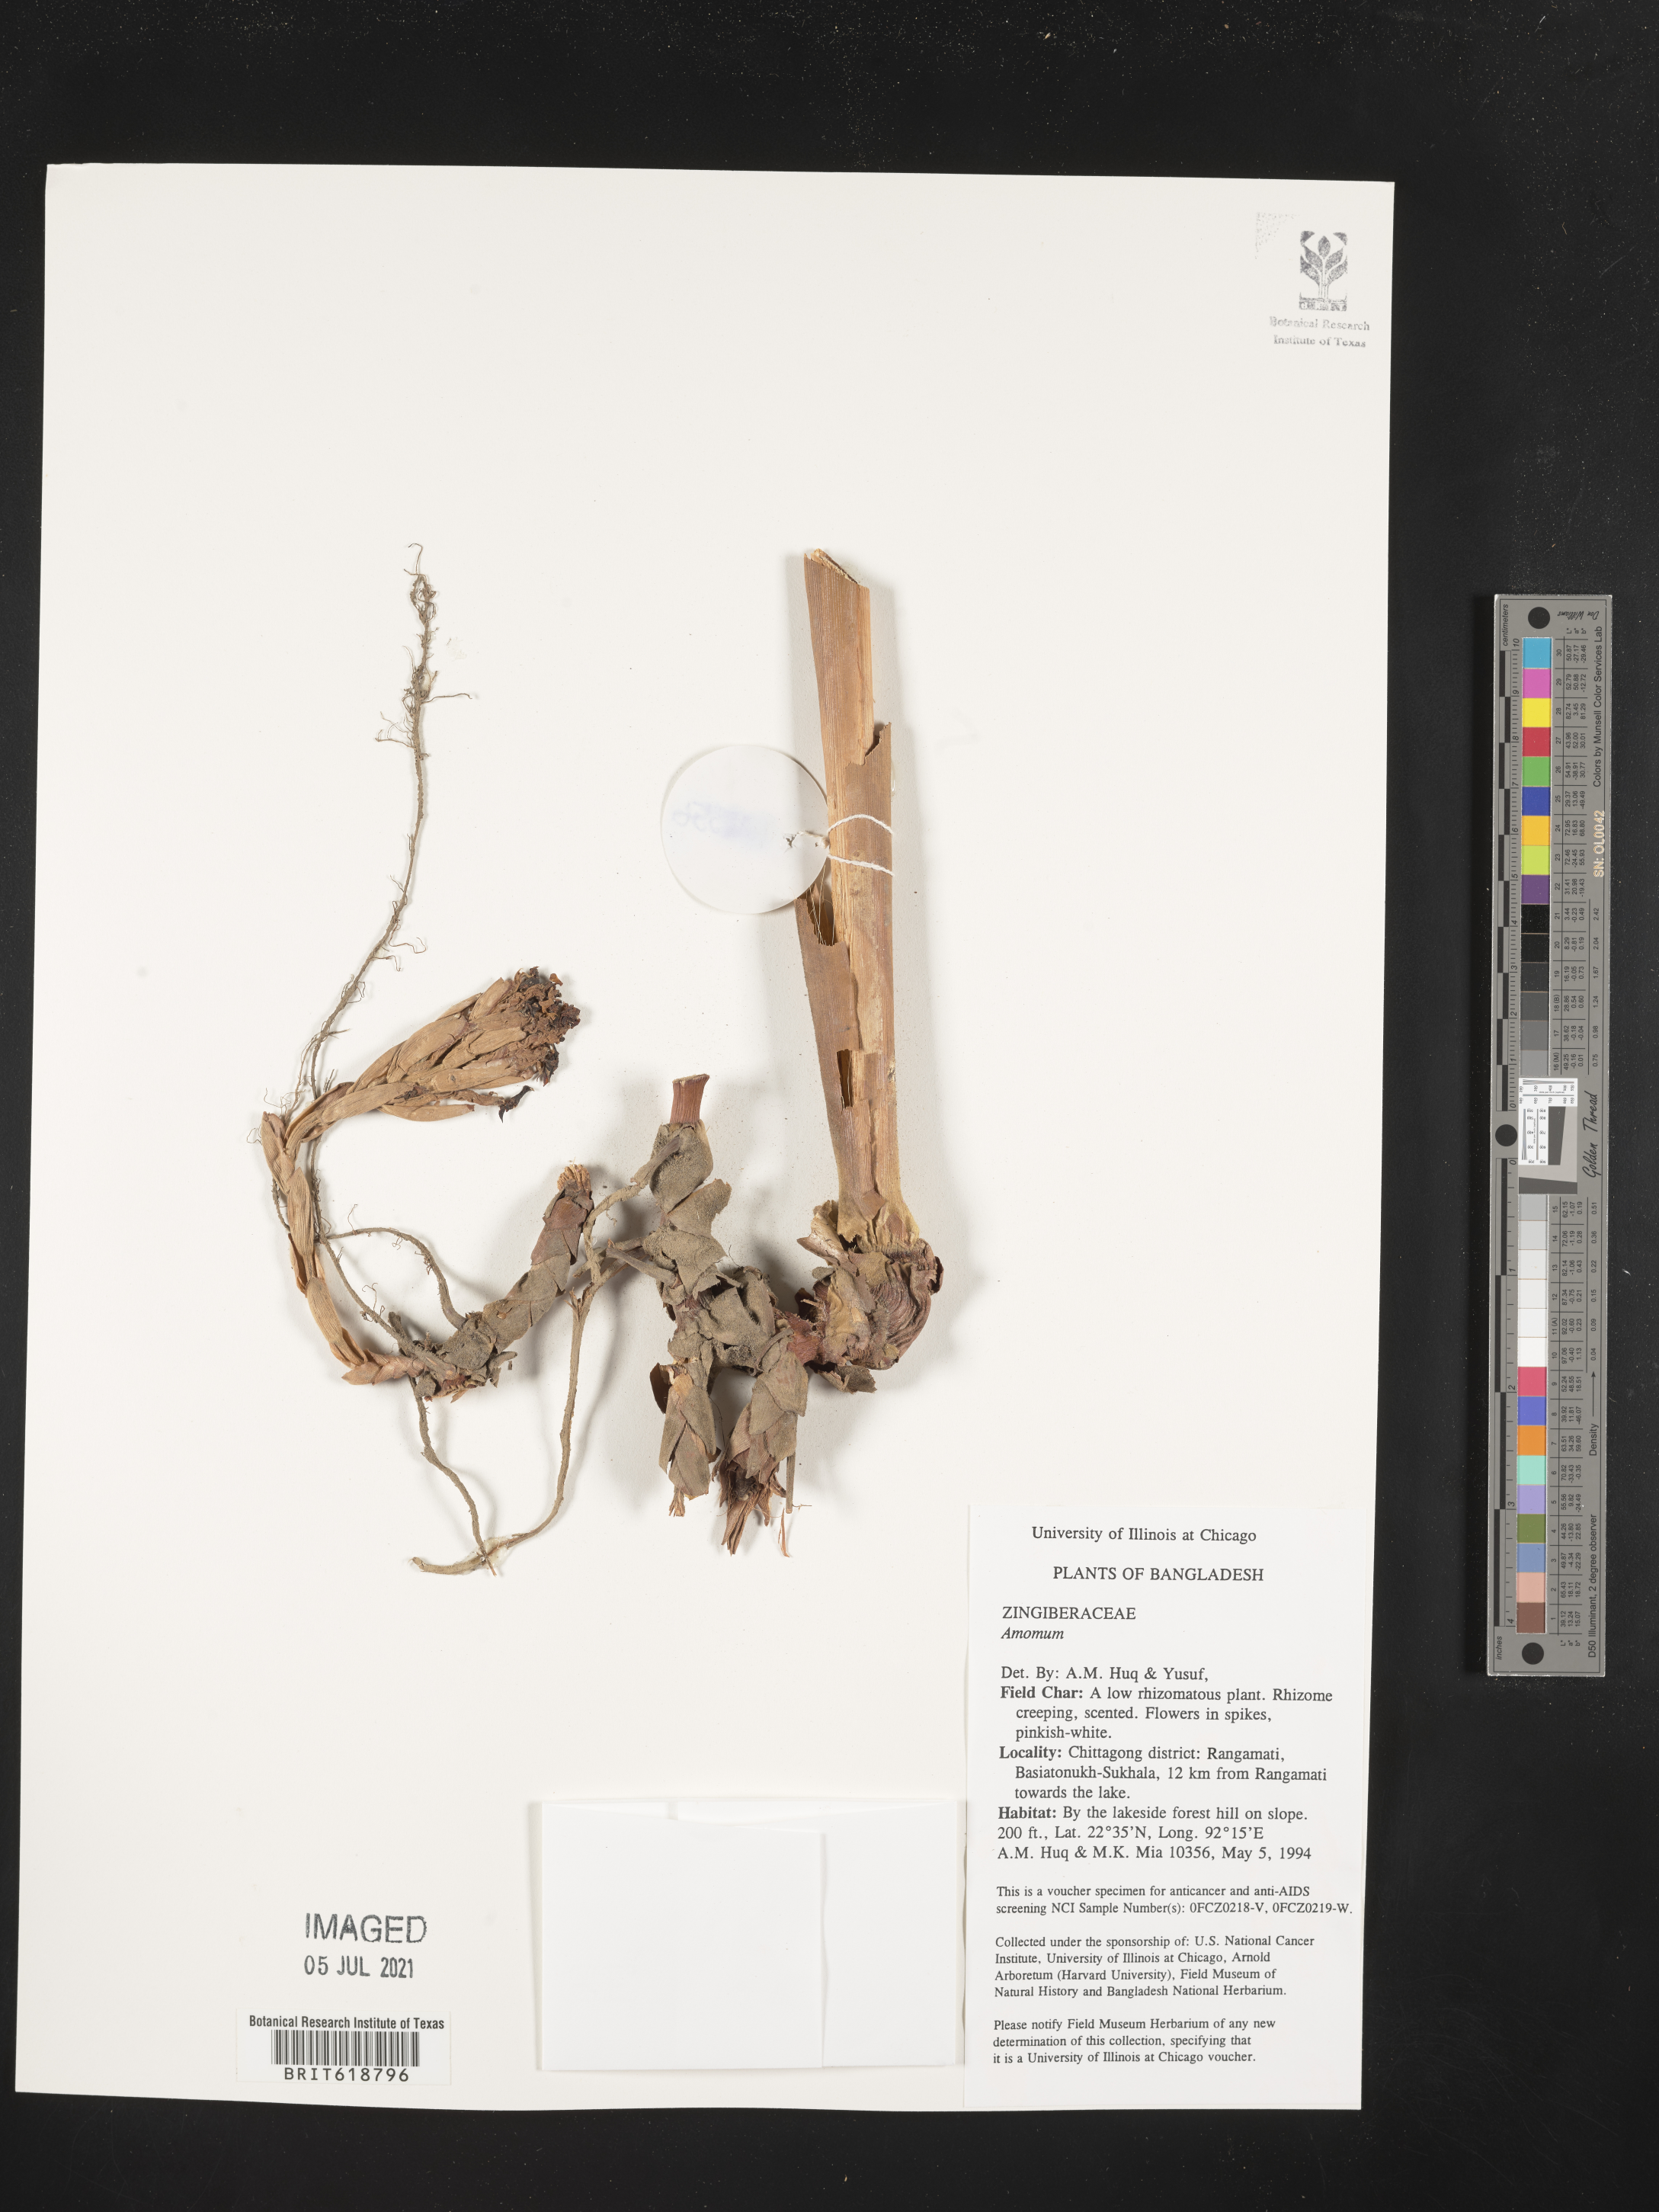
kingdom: Plantae
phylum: Tracheophyta
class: Liliopsida
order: Zingiberales
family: Zingiberaceae
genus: Amomum
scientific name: Amomum
